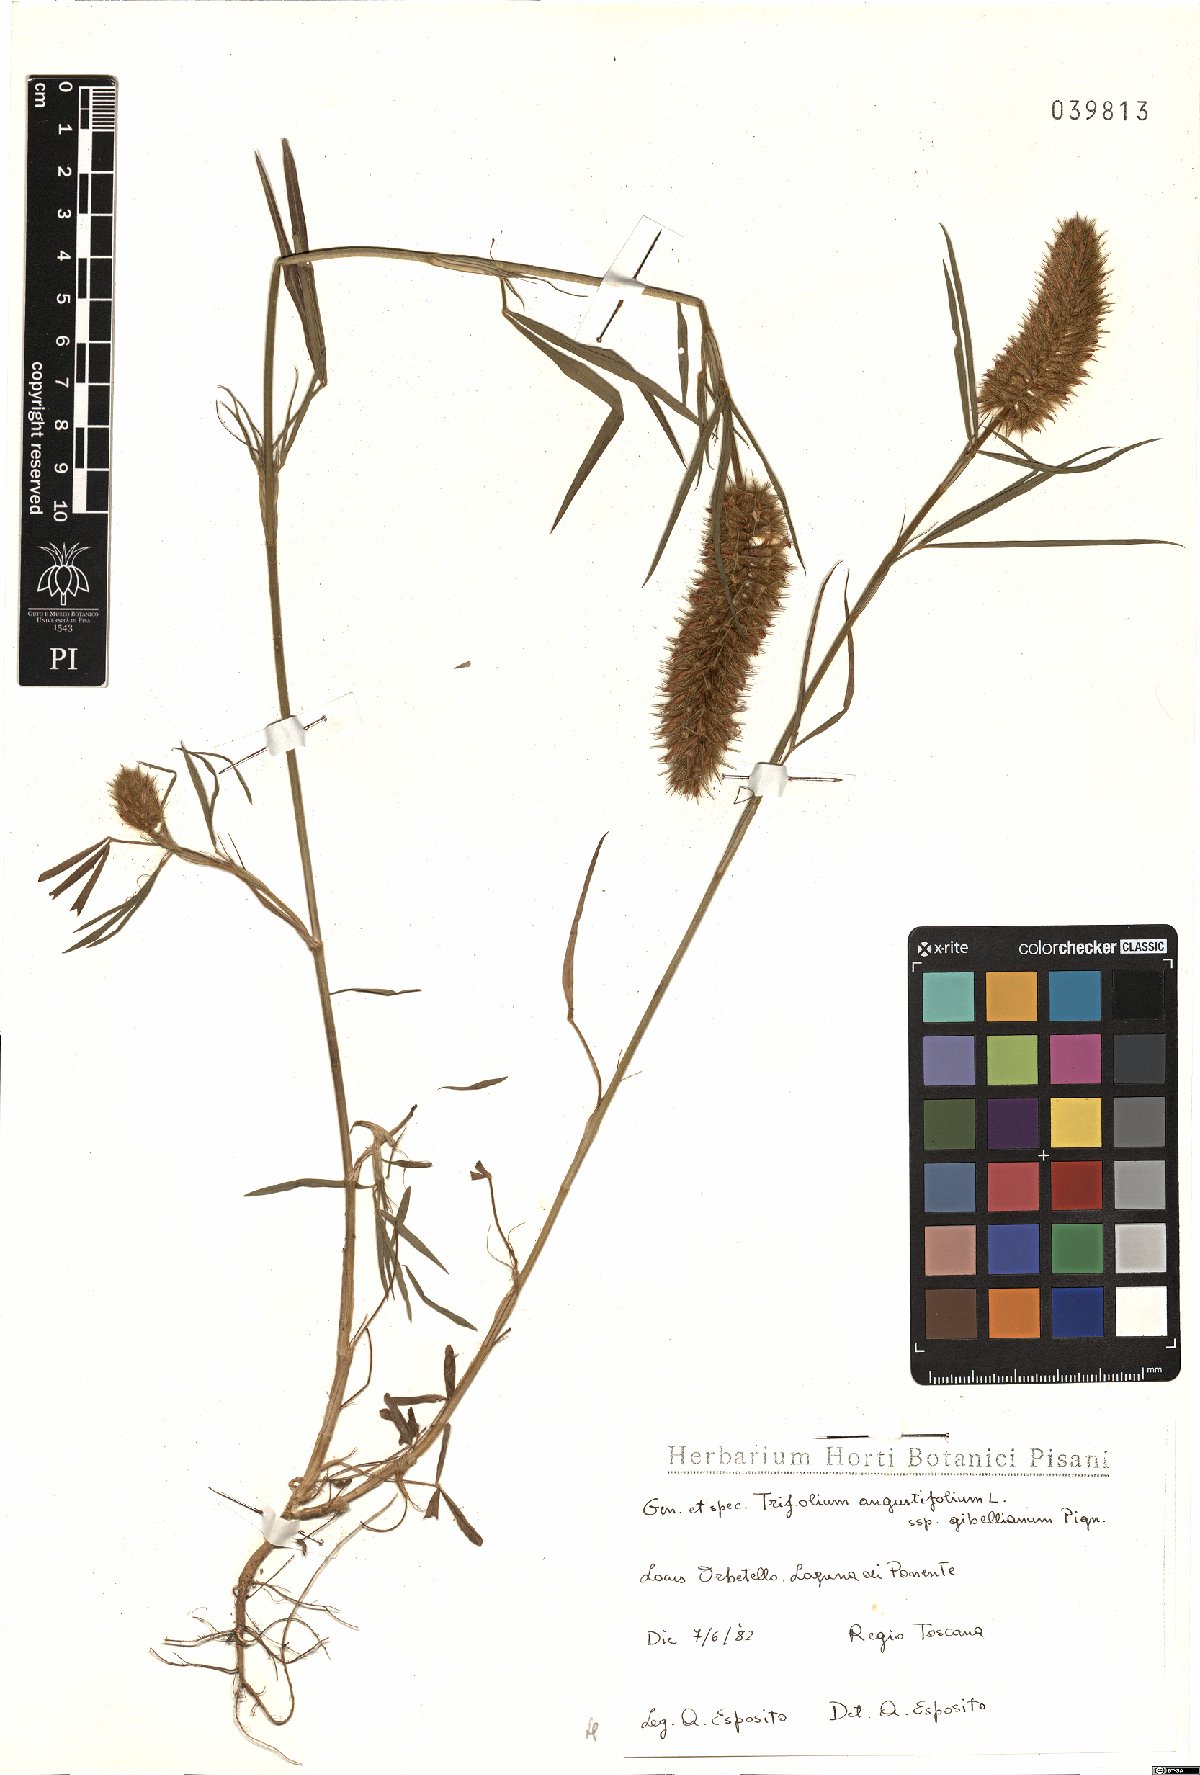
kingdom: Plantae
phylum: Tracheophyta
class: Magnoliopsida
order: Fabales
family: Fabaceae
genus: Trifolium
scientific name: Trifolium infamia-ponertii
